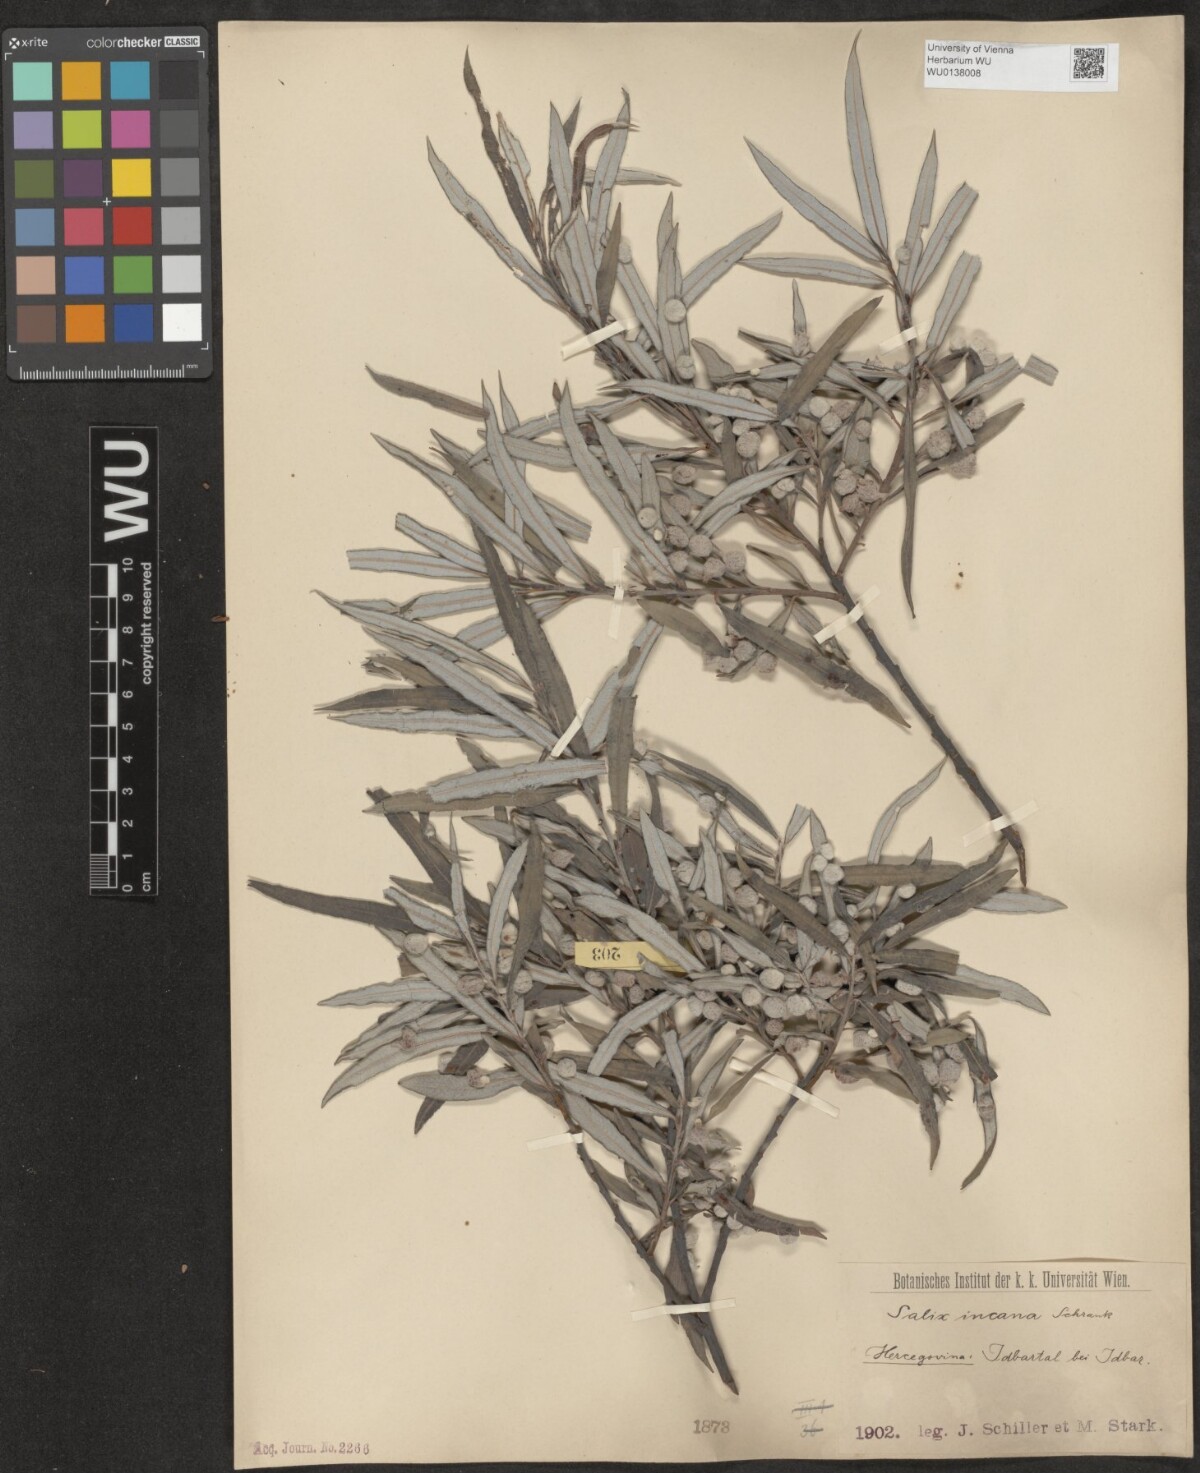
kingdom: Plantae
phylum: Tracheophyta
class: Magnoliopsida
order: Malpighiales
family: Salicaceae
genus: Salix
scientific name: Salix eleagnos
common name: Elaeagnus willow
